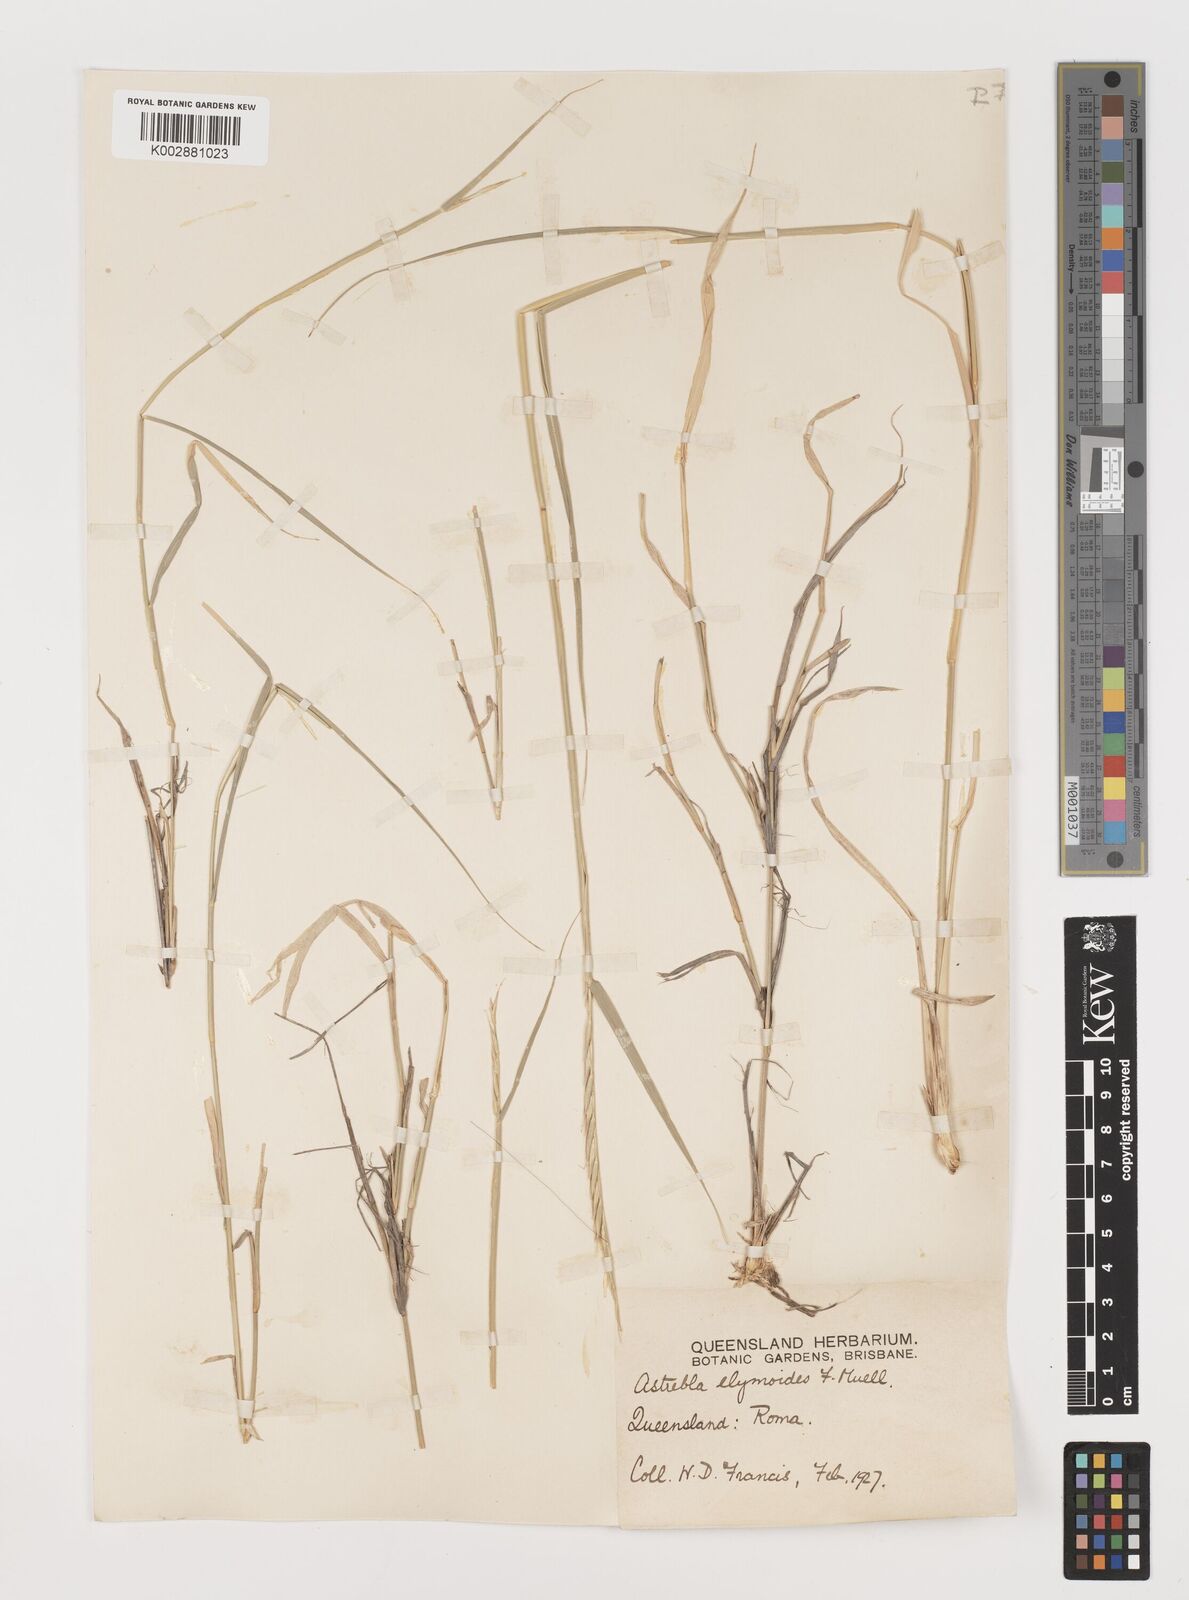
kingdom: Plantae
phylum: Tracheophyta
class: Liliopsida
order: Poales
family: Poaceae
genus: Astrebla
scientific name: Astrebla elymoides
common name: Hoop mitchell grass
